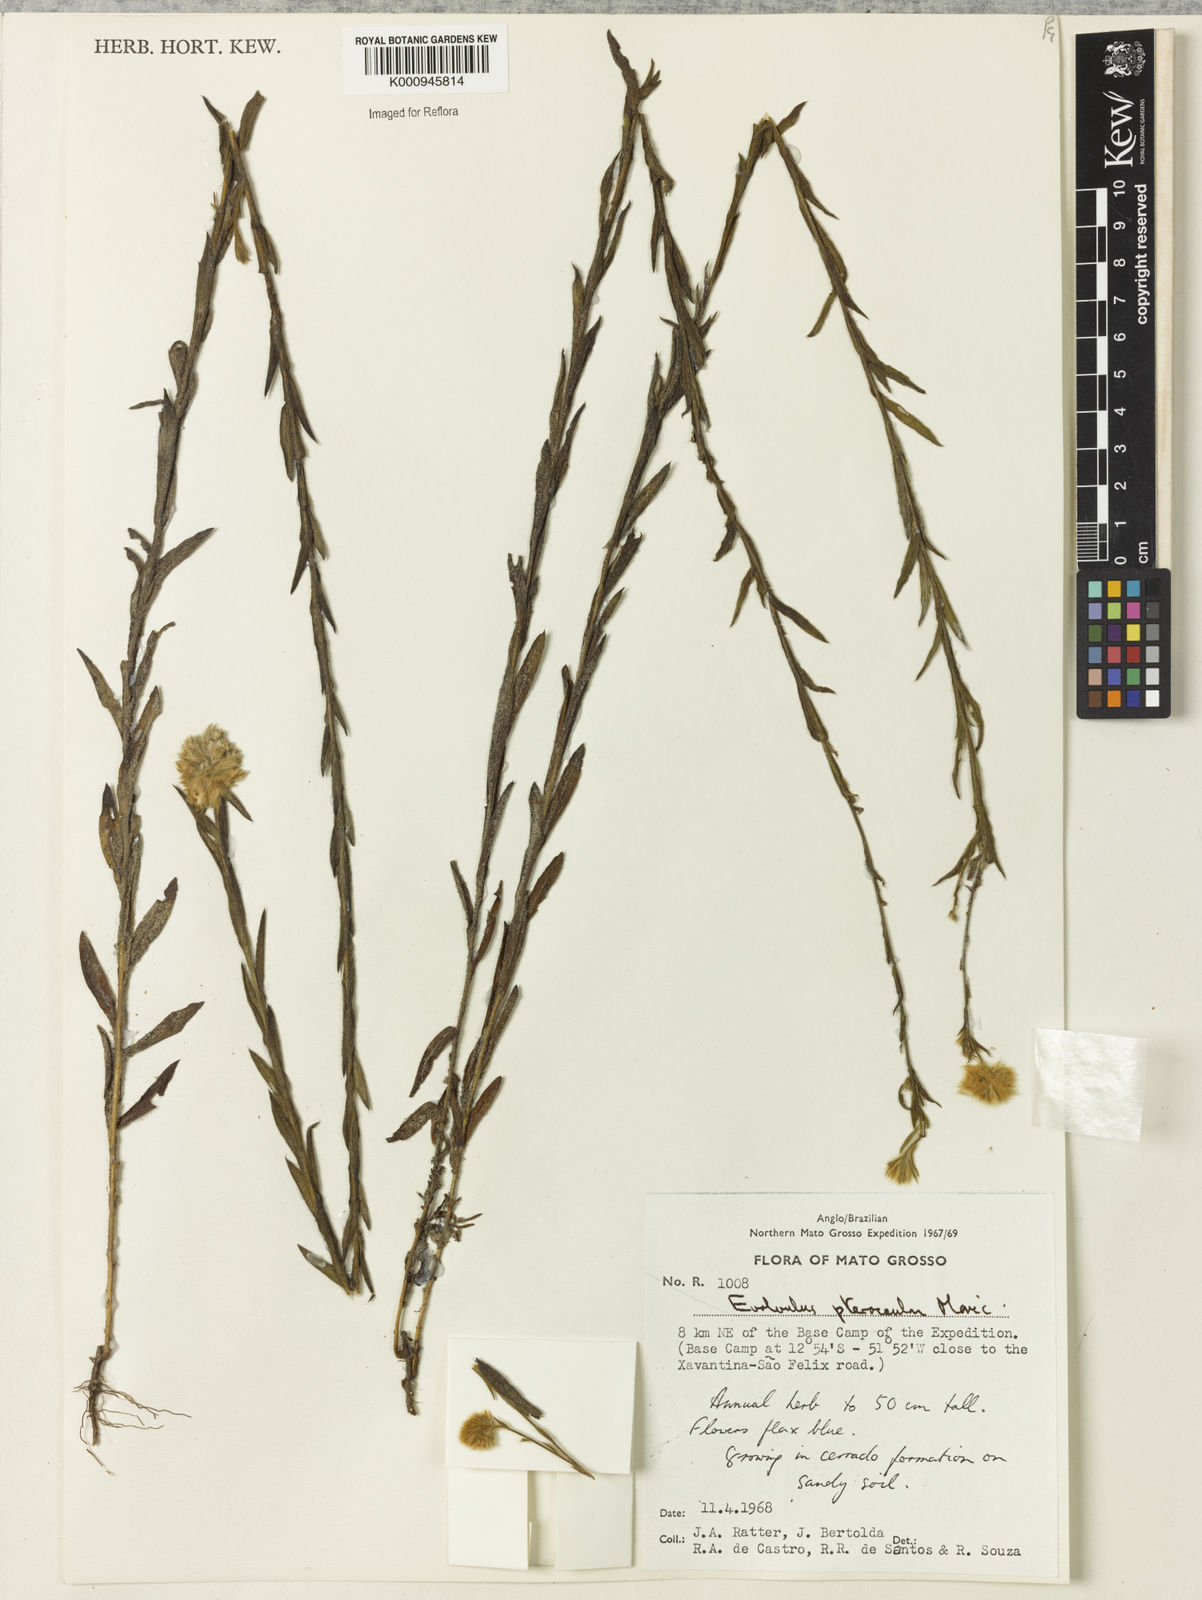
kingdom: Plantae
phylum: Tracheophyta
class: Magnoliopsida
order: Solanales
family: Convolvulaceae
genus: Evolvulus
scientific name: Evolvulus pterocaulon
